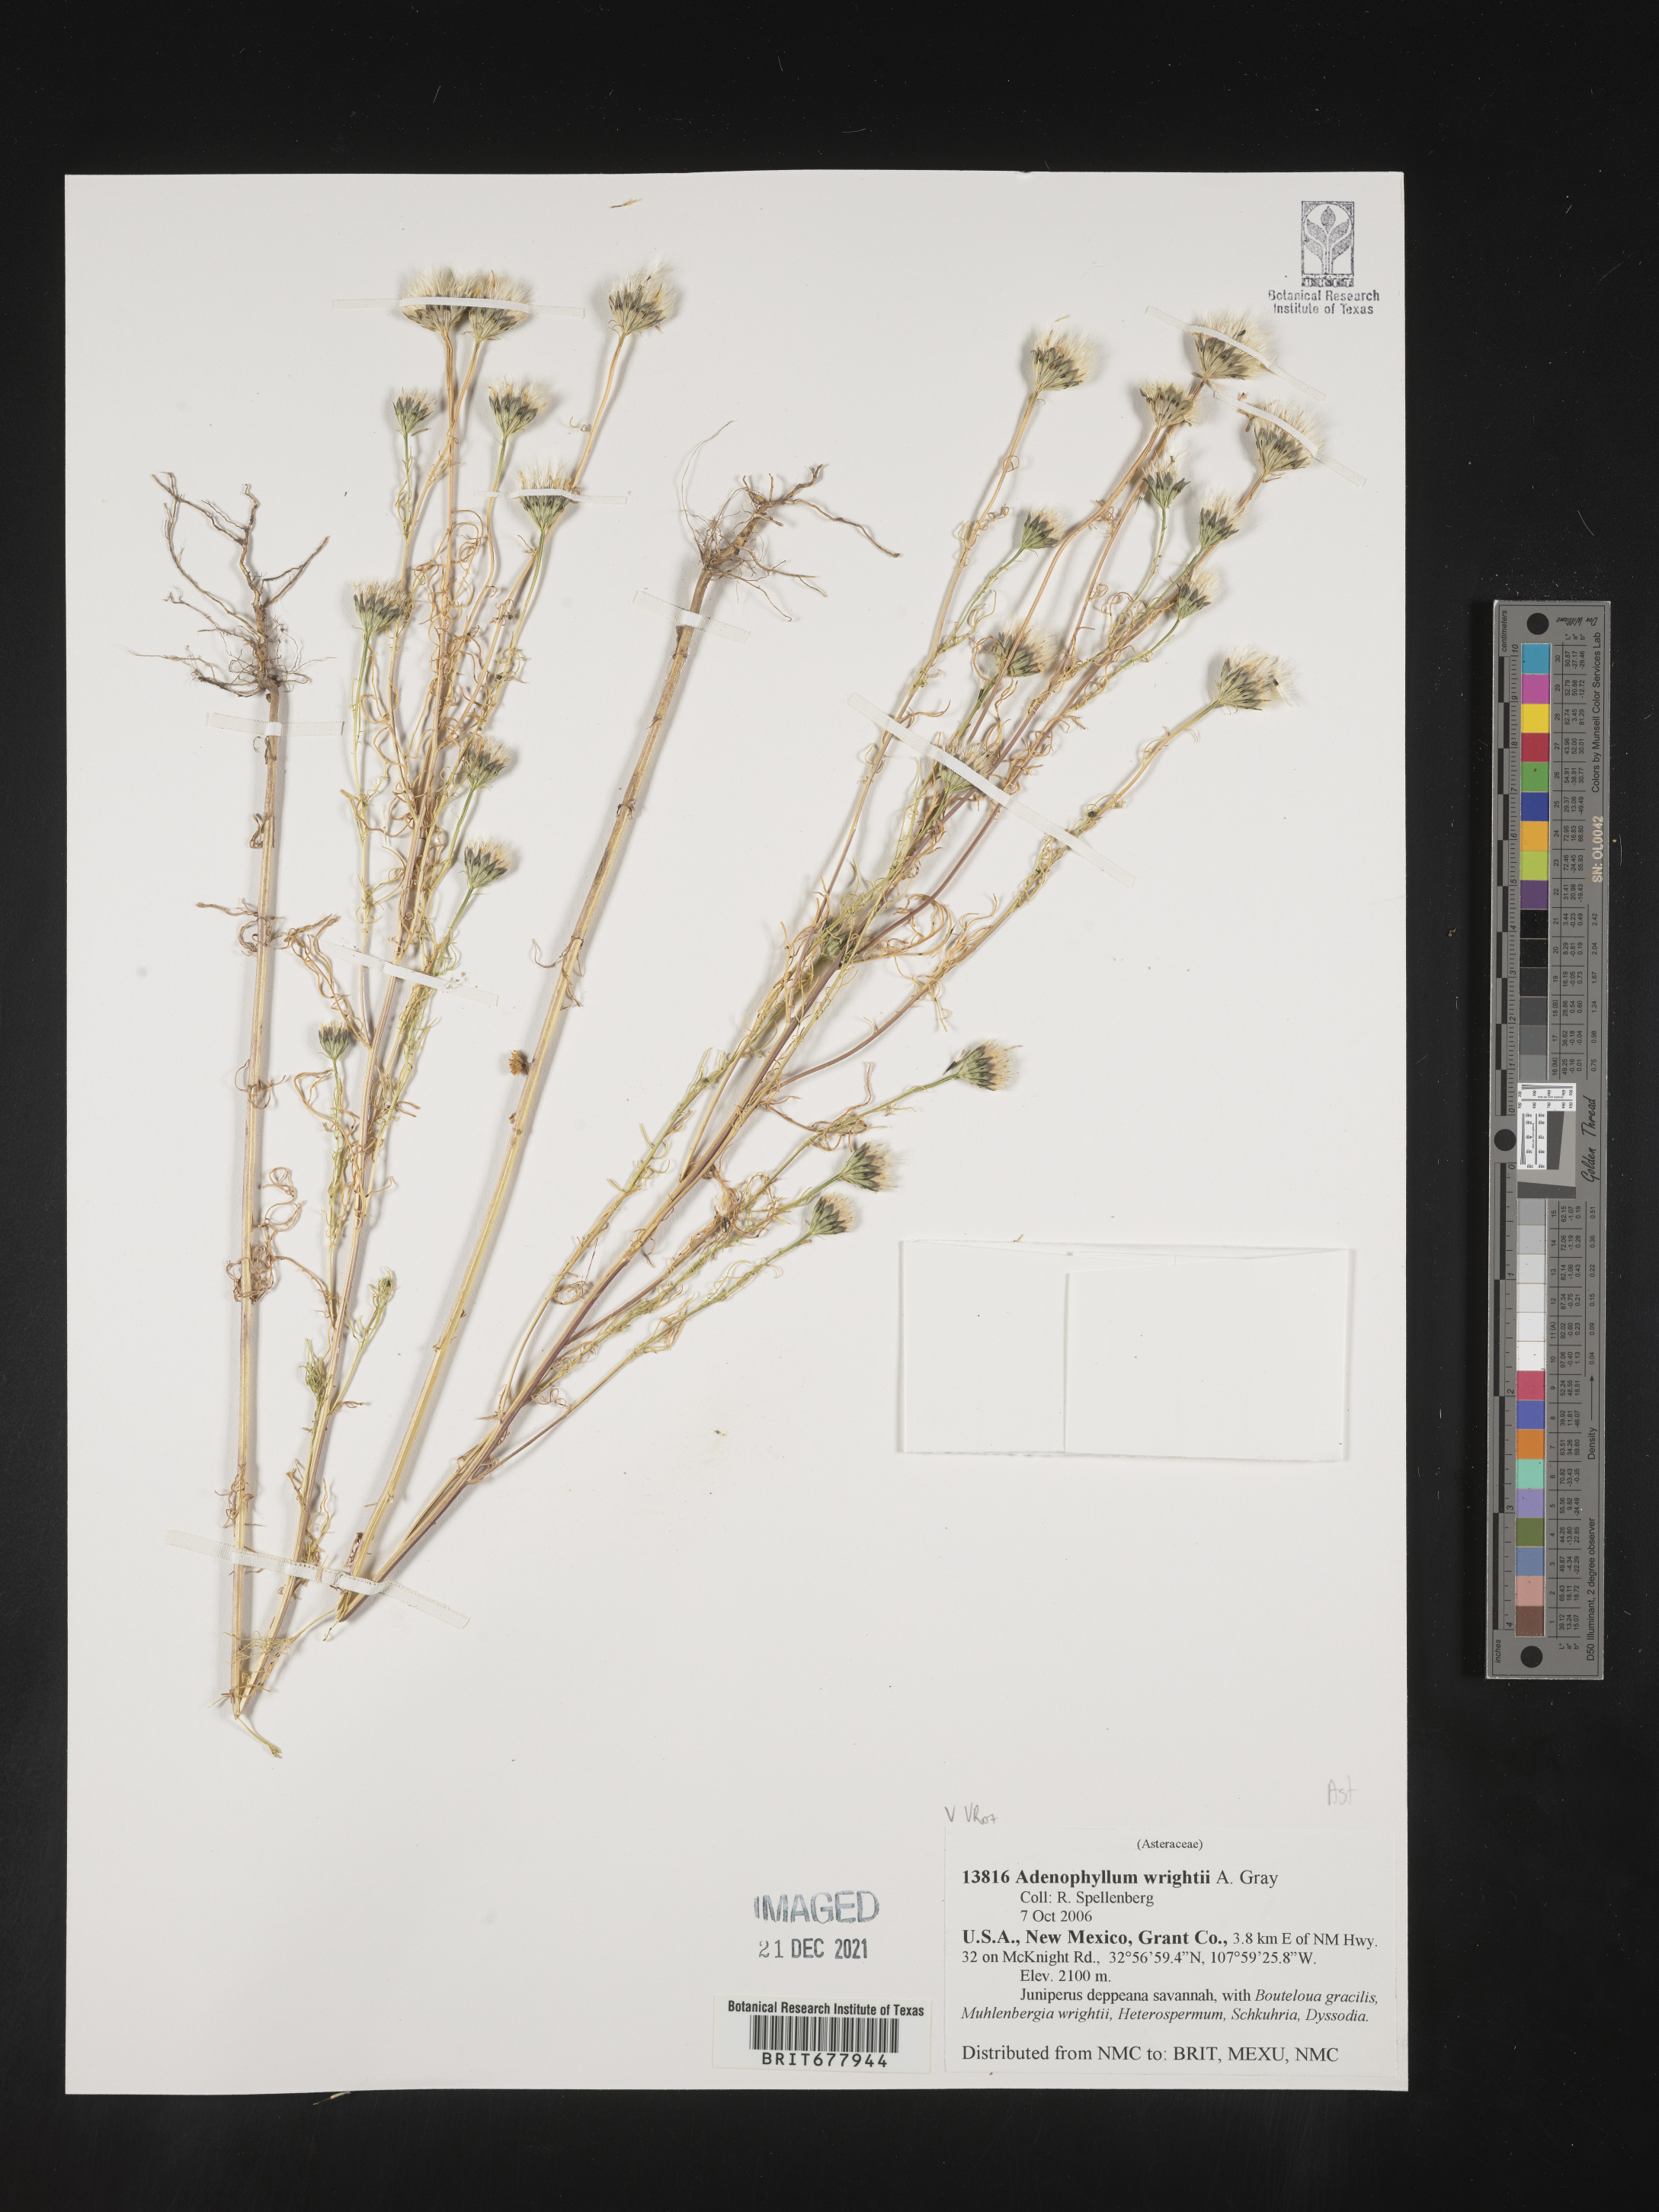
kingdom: Plantae
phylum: Tracheophyta
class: Magnoliopsida
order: Asterales
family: Asteraceae
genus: Adenophyllum
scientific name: Adenophyllum
